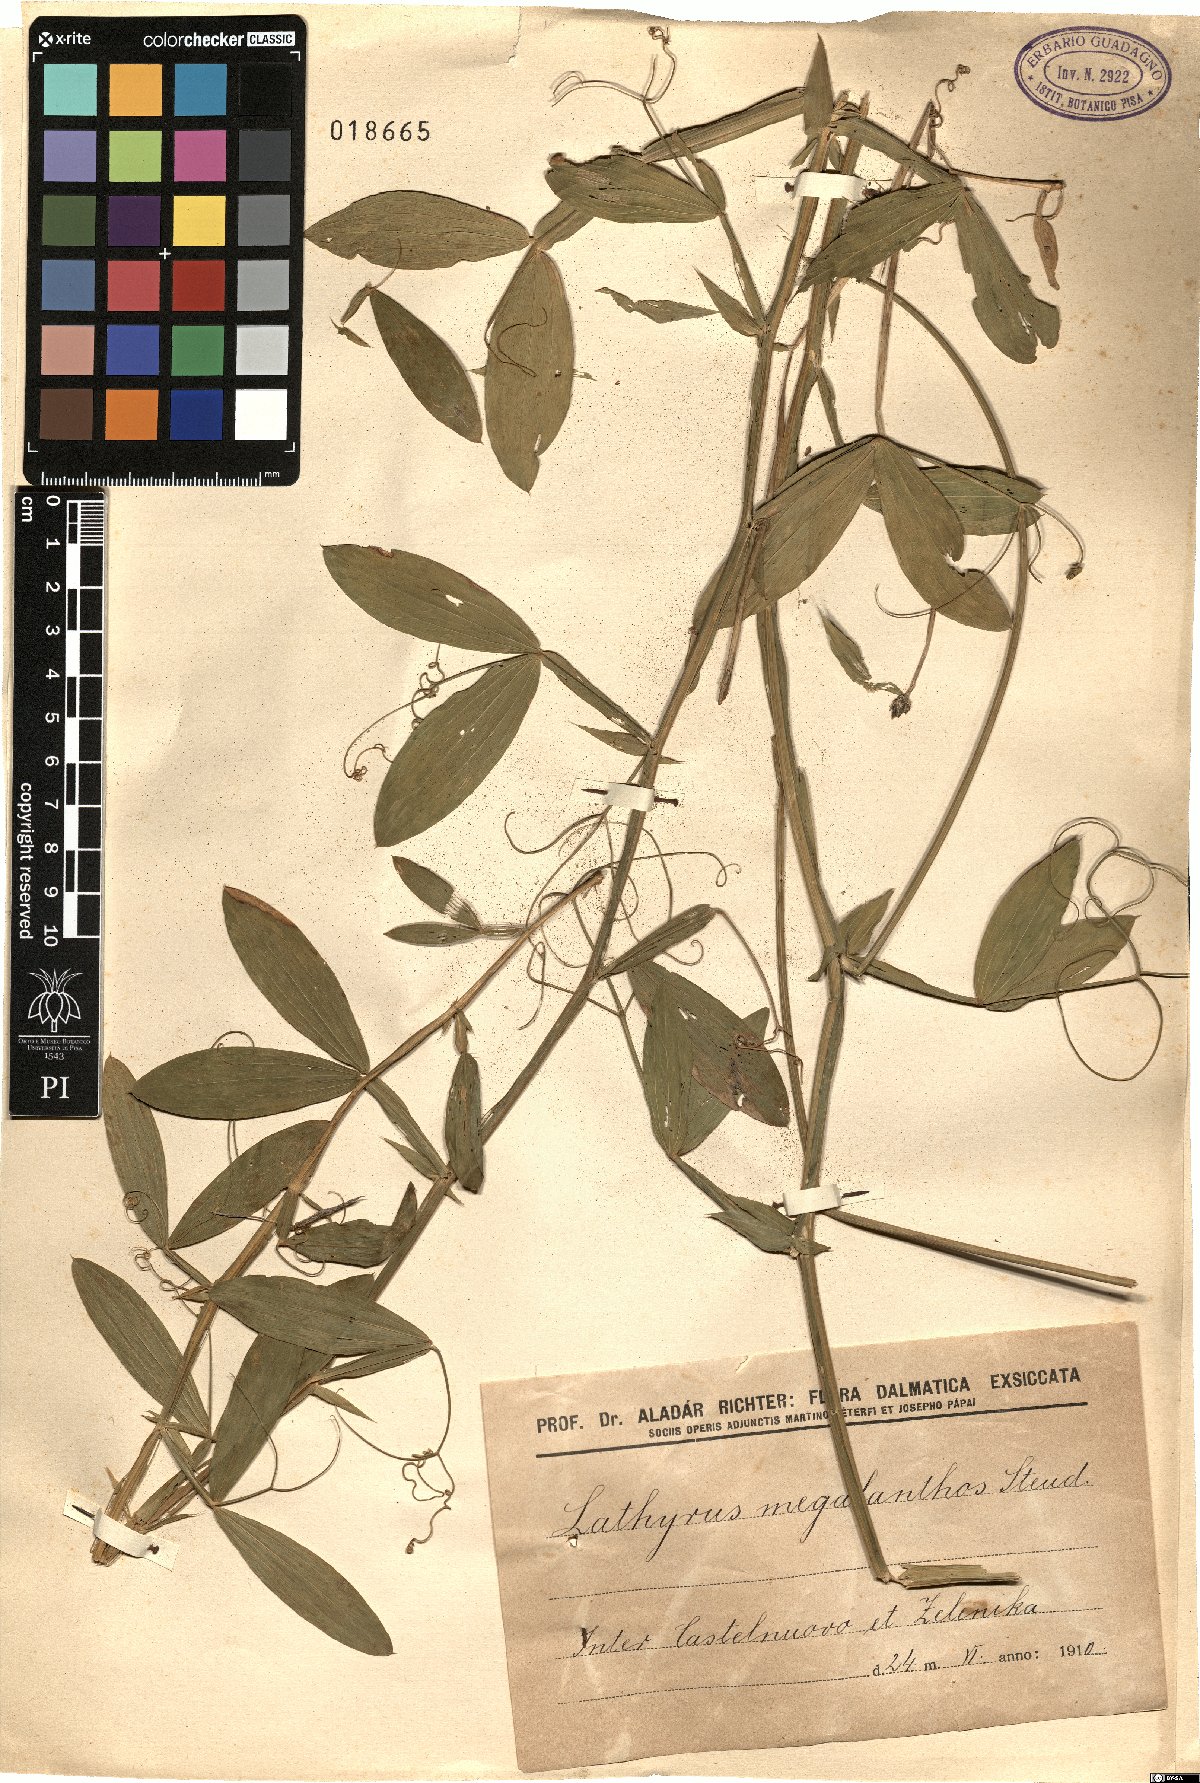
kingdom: Plantae
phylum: Tracheophyta
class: Magnoliopsida
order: Fabales
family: Fabaceae
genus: Lathyrus
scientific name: Lathyrus latifolius
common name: Perennial pea
